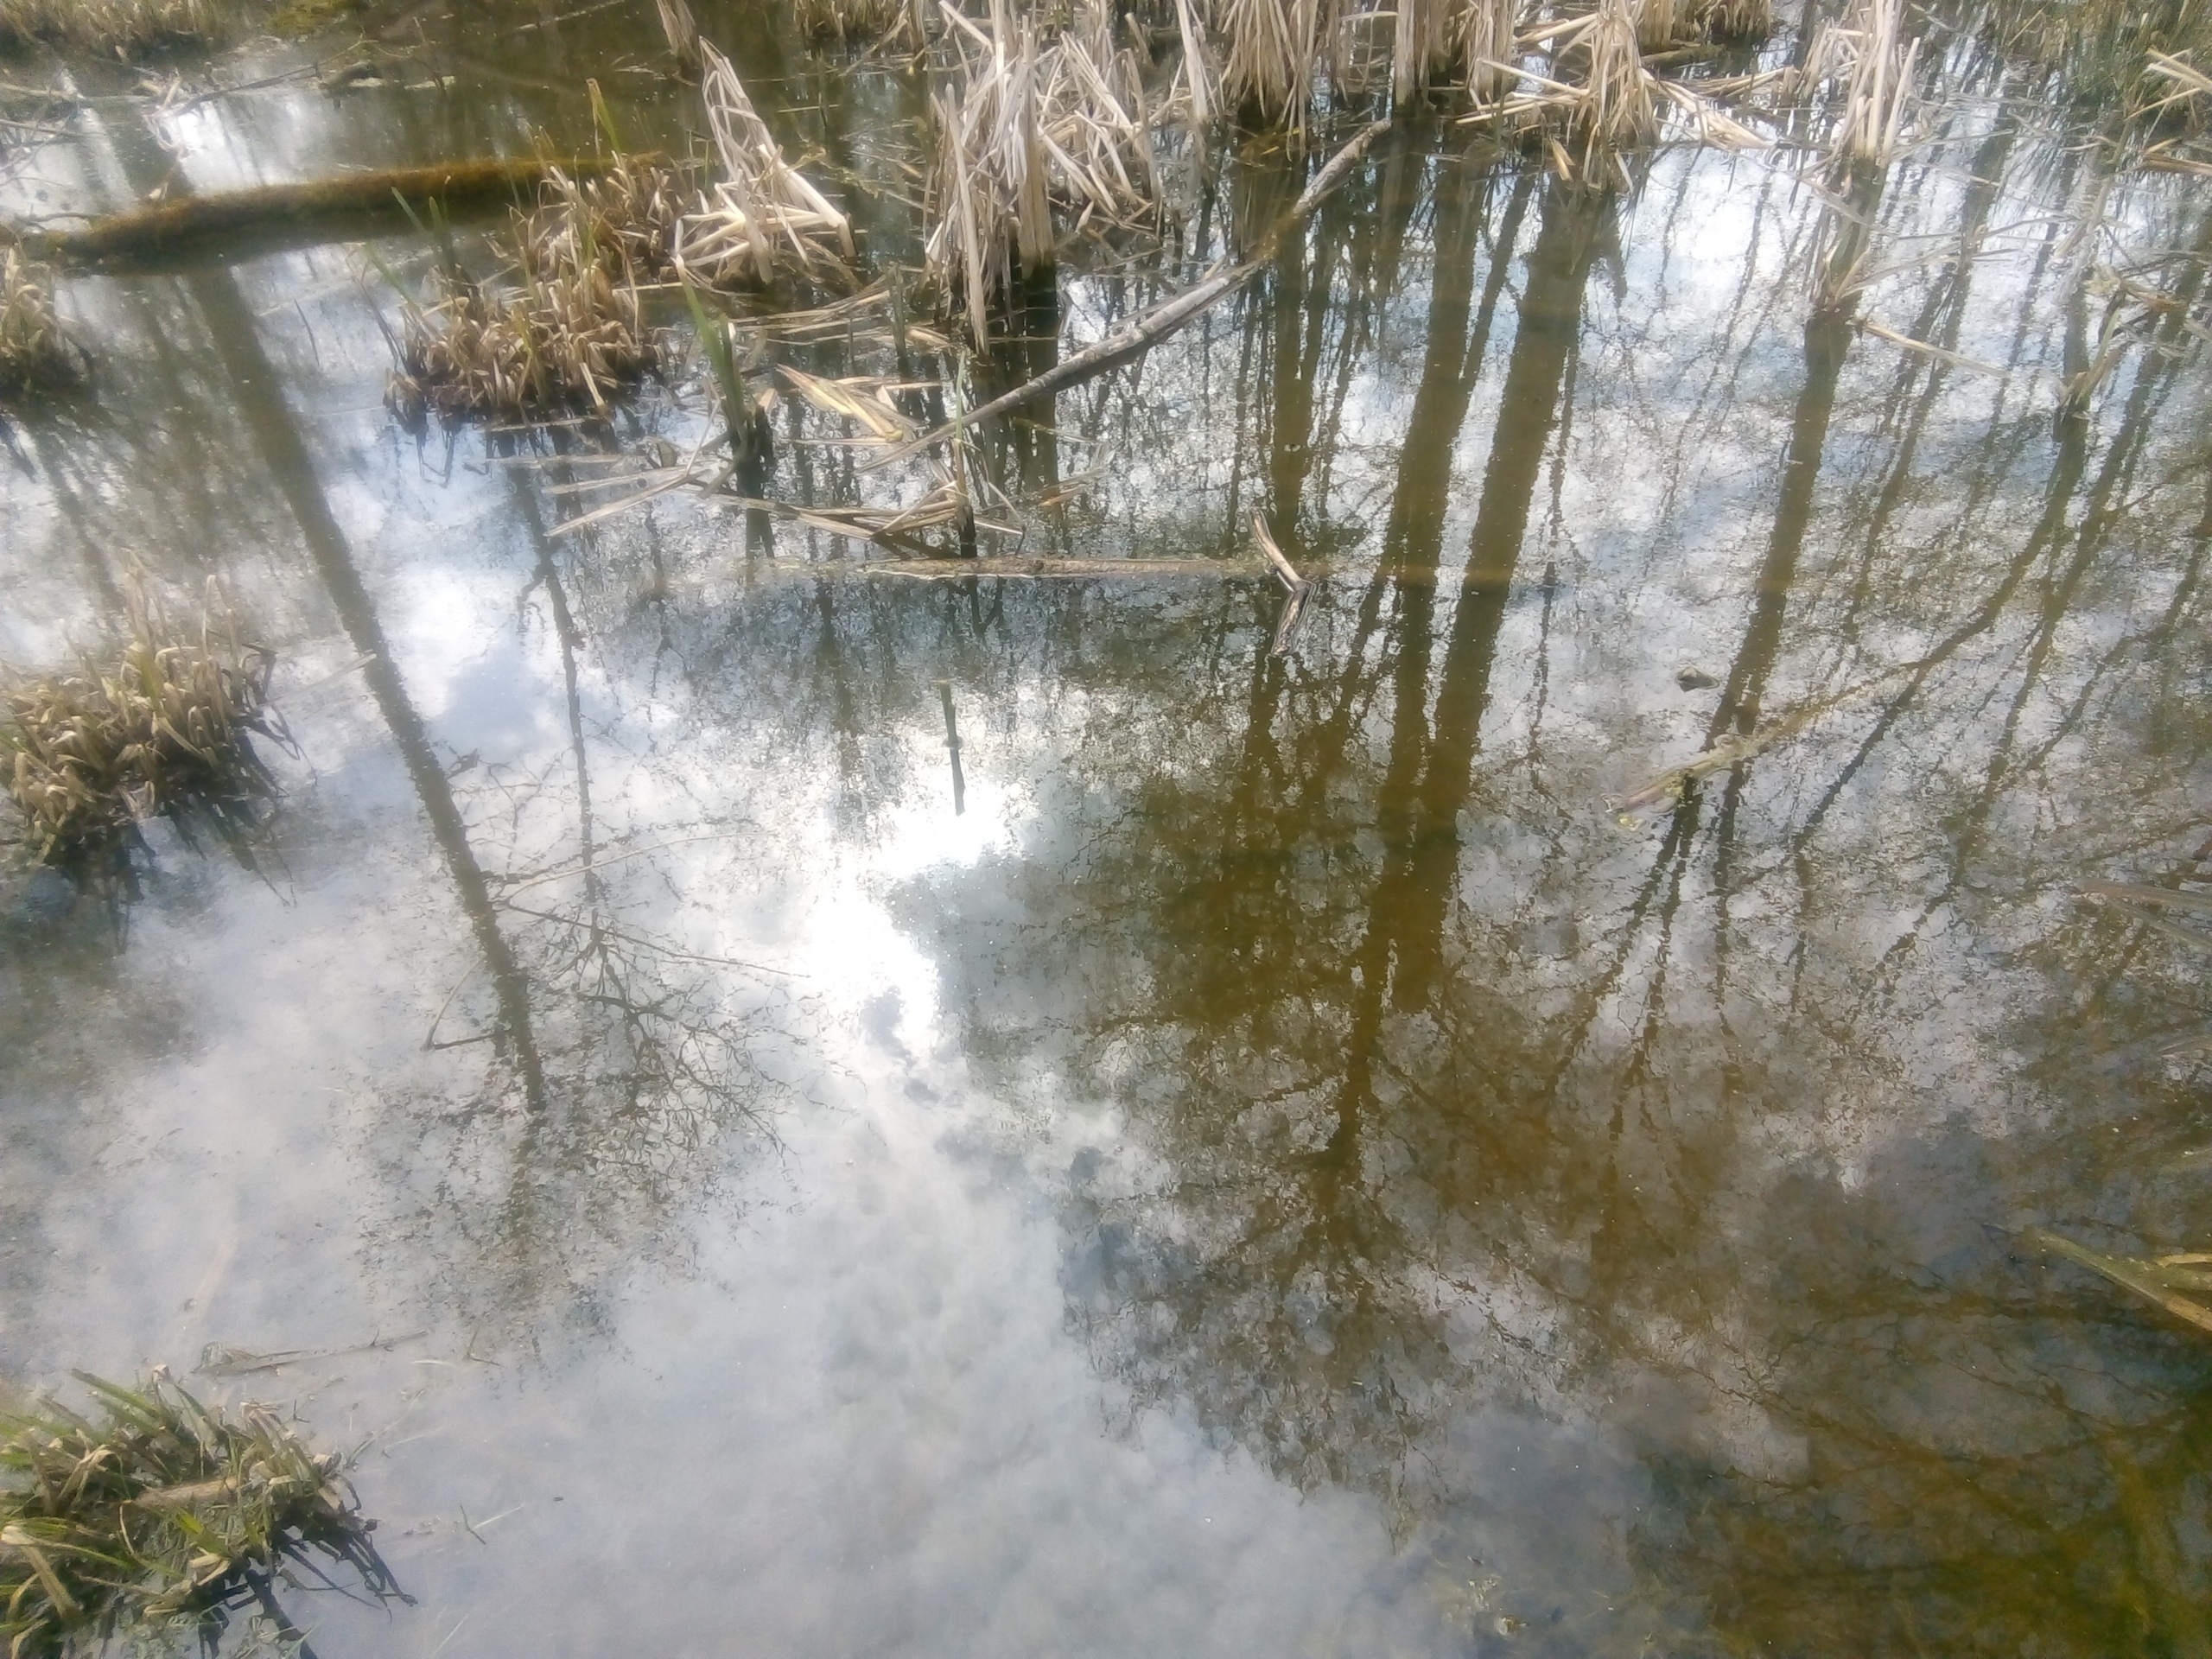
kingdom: Animalia
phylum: Chordata
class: Amphibia
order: Caudata
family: Salamandridae
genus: Lissotriton
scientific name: Lissotriton vulgaris
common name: Lille vandsalamander
